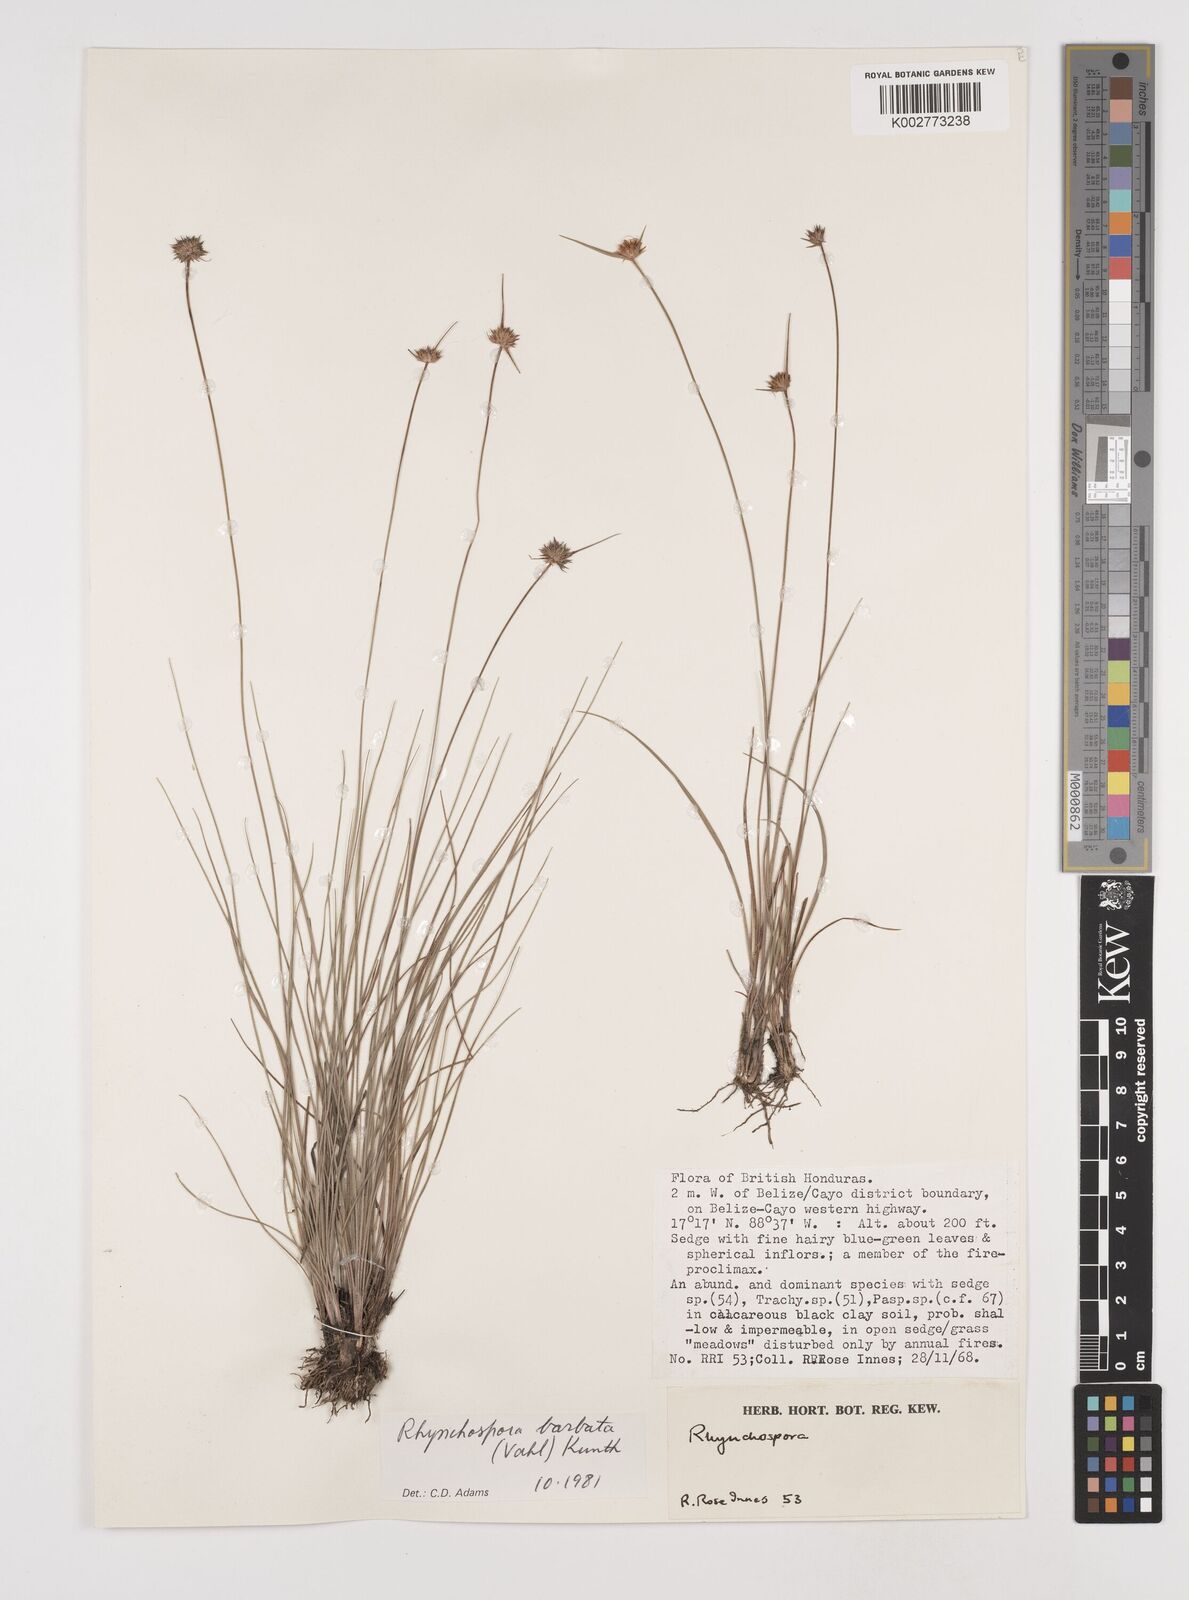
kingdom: Plantae
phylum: Tracheophyta
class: Liliopsida
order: Poales
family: Cyperaceae
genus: Rhynchospora
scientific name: Rhynchospora barbata
